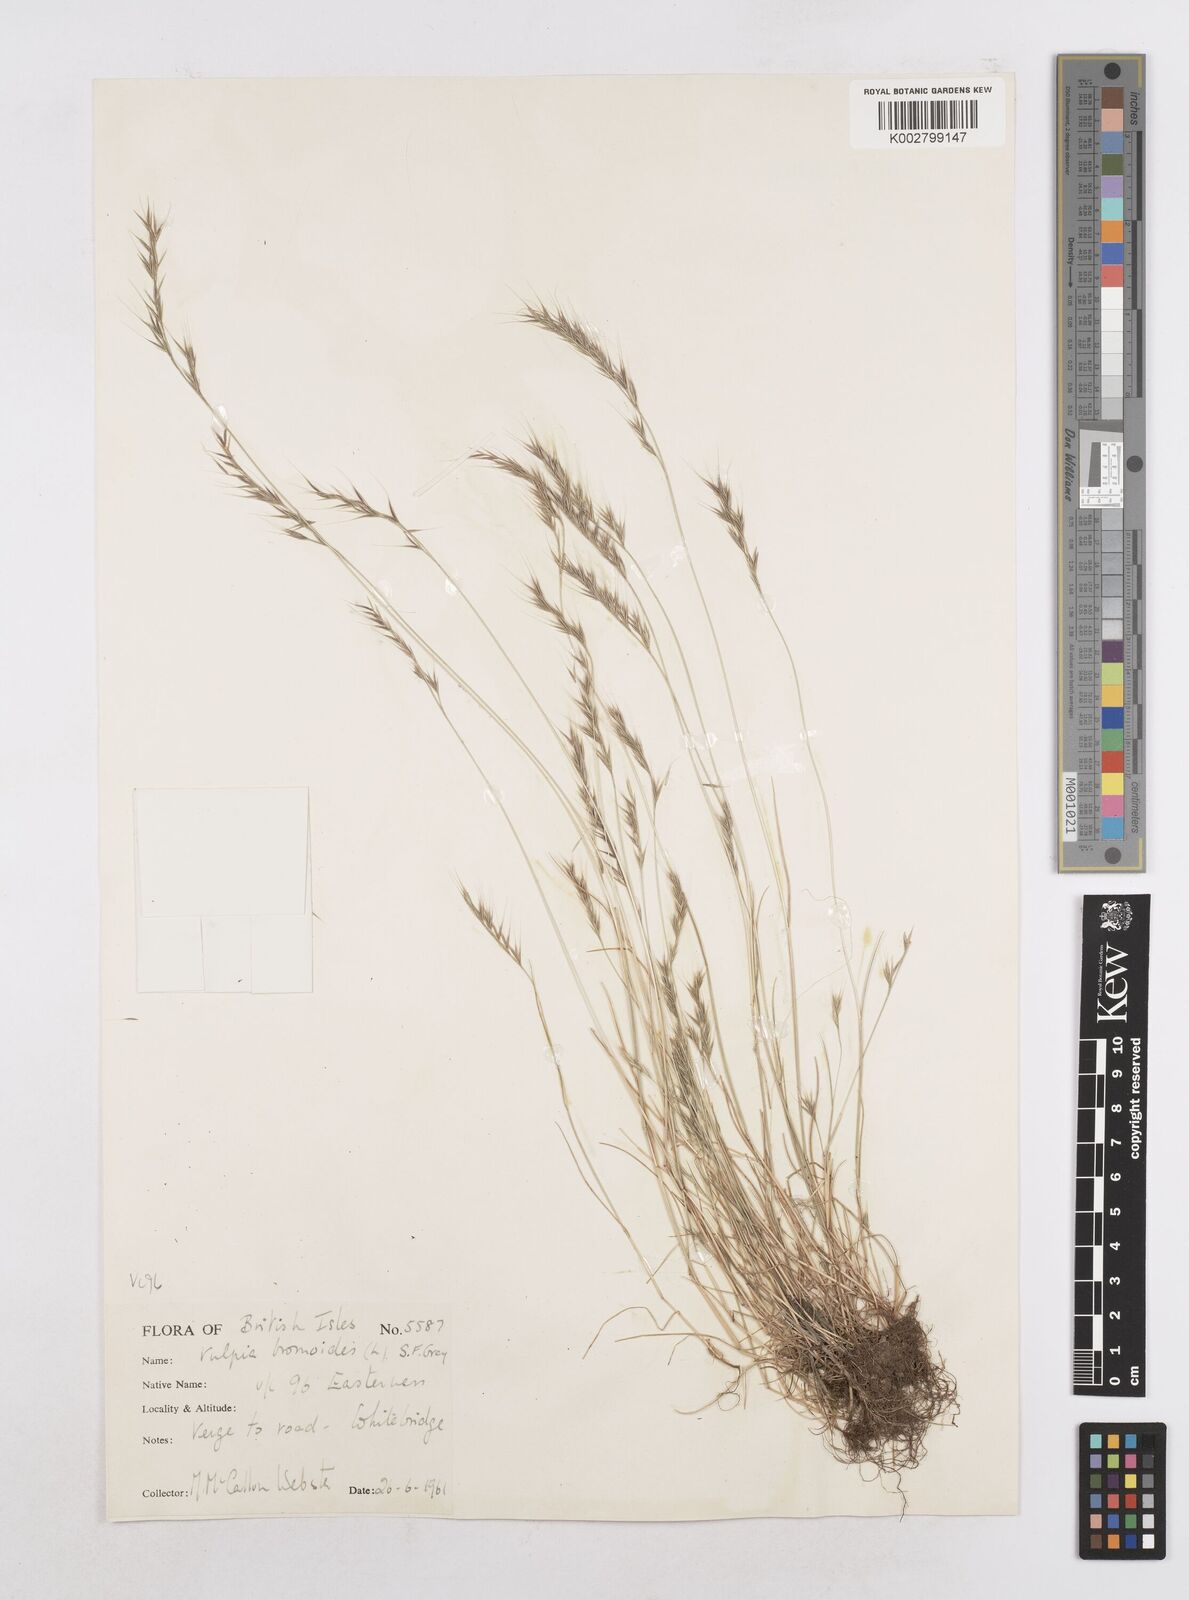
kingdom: Plantae
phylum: Tracheophyta
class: Liliopsida
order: Poales
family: Poaceae
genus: Festuca
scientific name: Festuca bromoides
